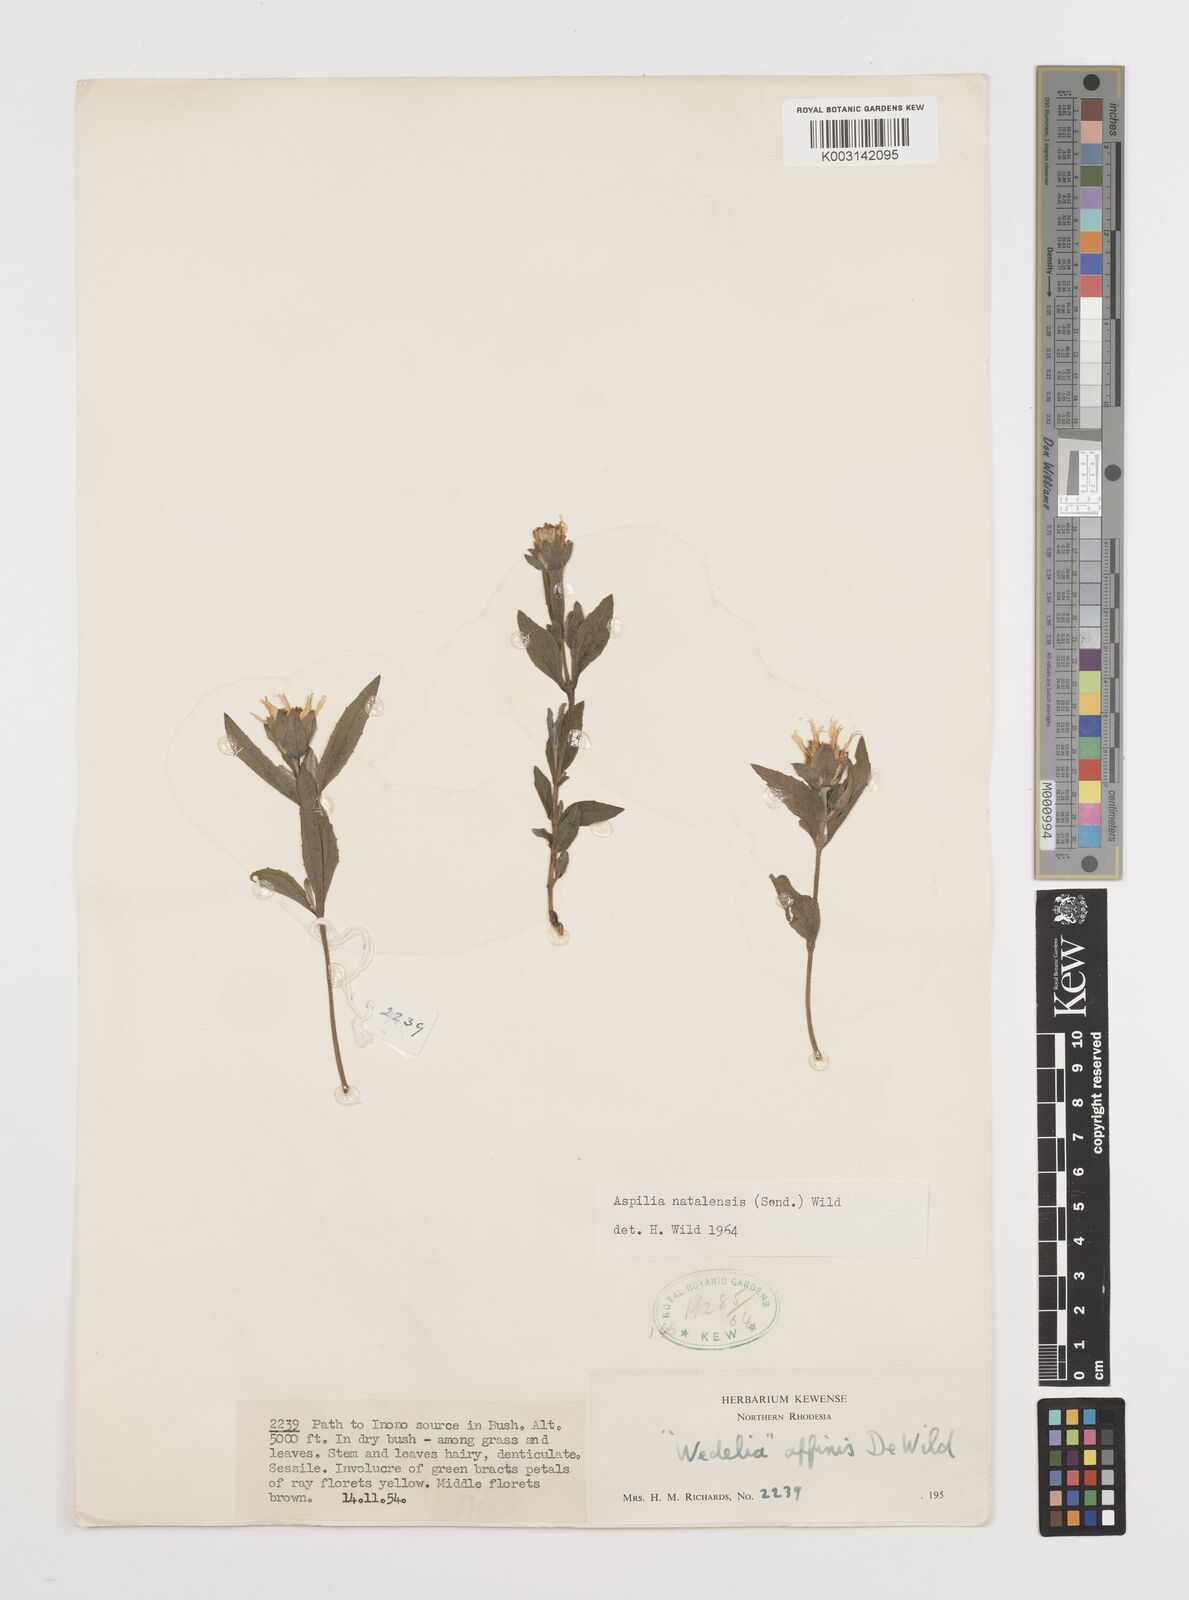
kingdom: Plantae
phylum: Tracheophyta
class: Magnoliopsida
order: Asterales
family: Asteraceae
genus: Aspilia
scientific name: Aspilia angolensis
